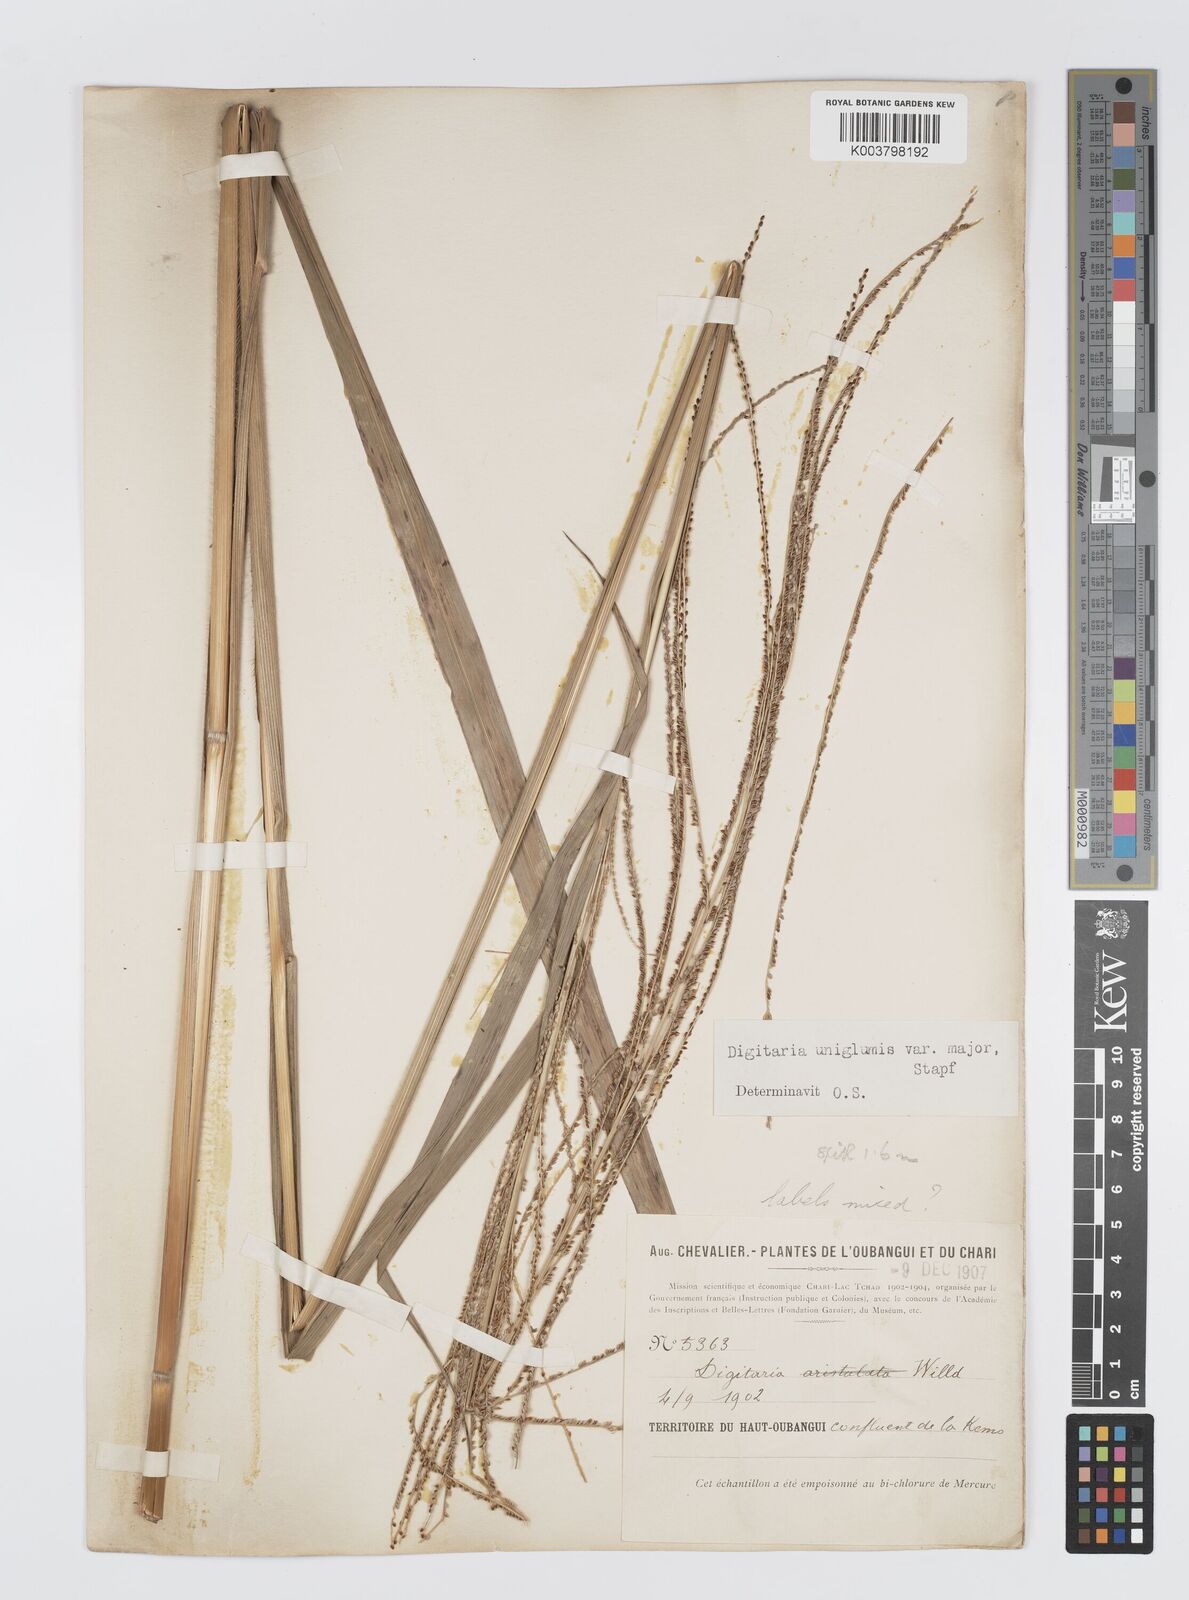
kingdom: Plantae
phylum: Tracheophyta
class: Liliopsida
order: Poales
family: Poaceae
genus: Digitaria
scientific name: Digitaria diagonalis
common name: Brown-seed finger grass
